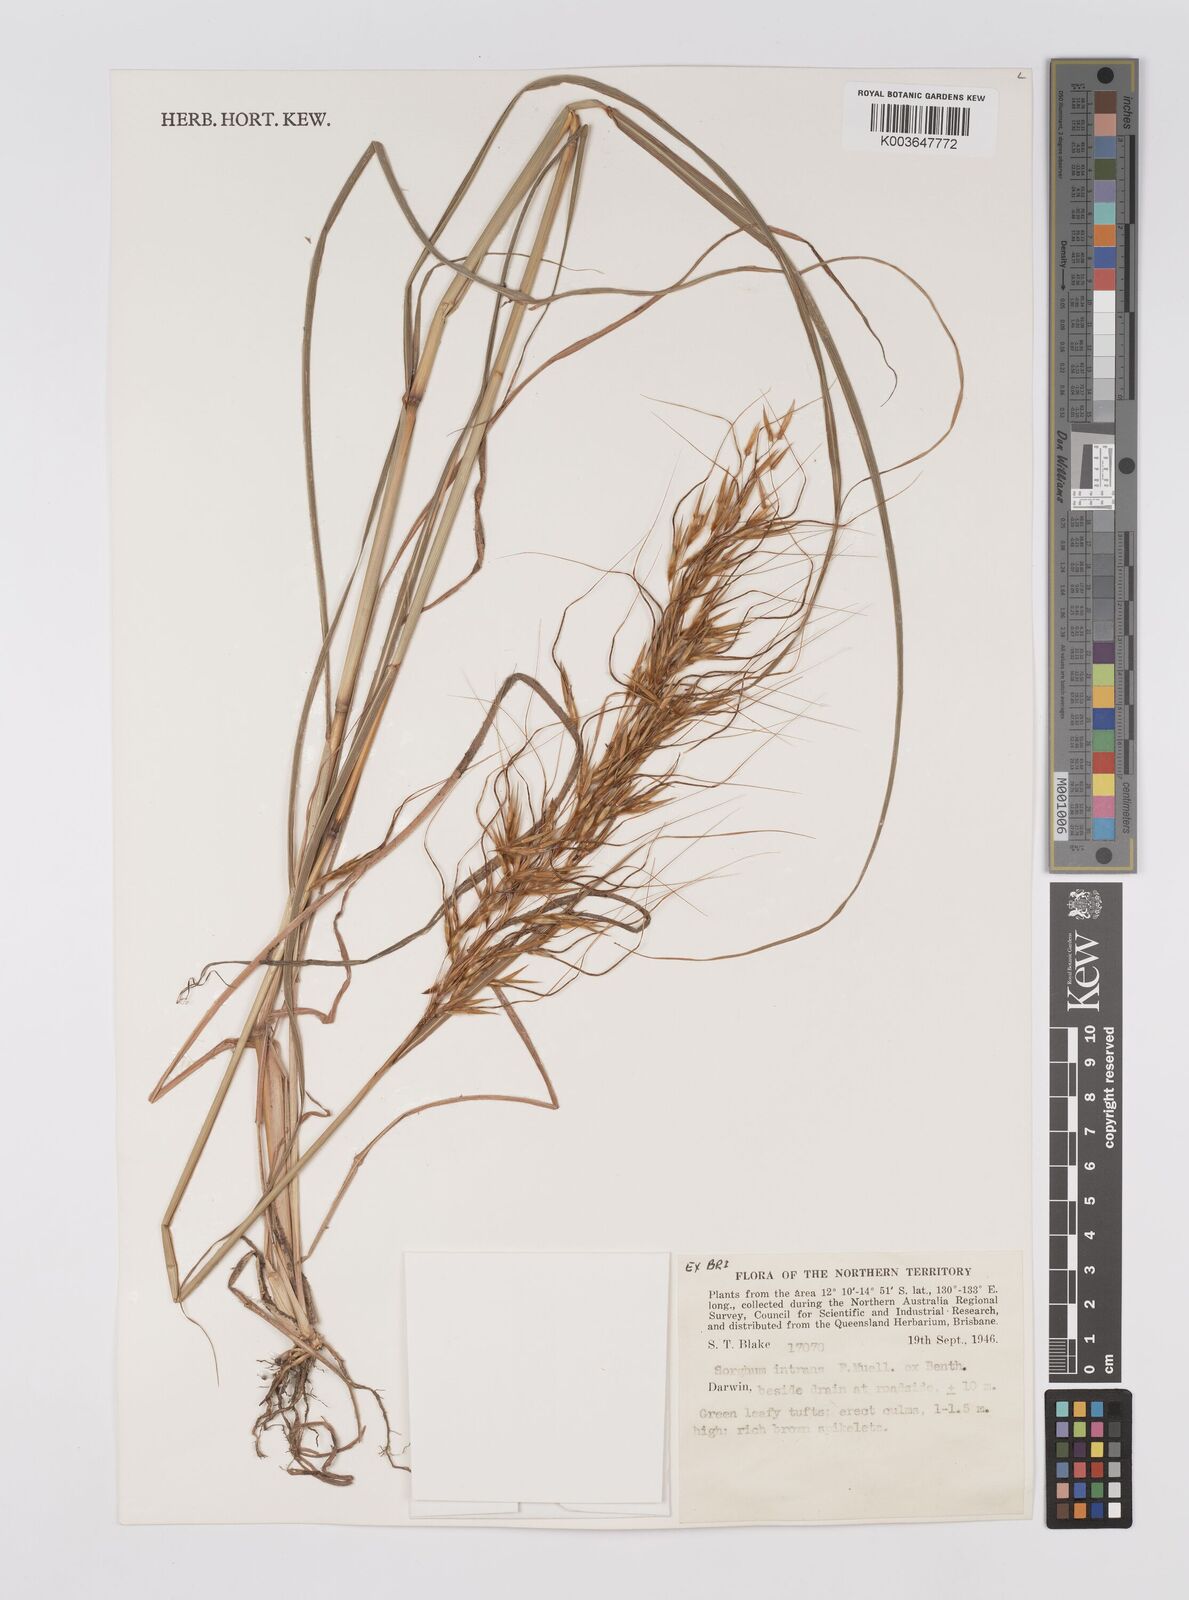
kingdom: Plantae
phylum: Tracheophyta
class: Liliopsida
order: Poales
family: Poaceae
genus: Sarga
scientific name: Sarga intrans
